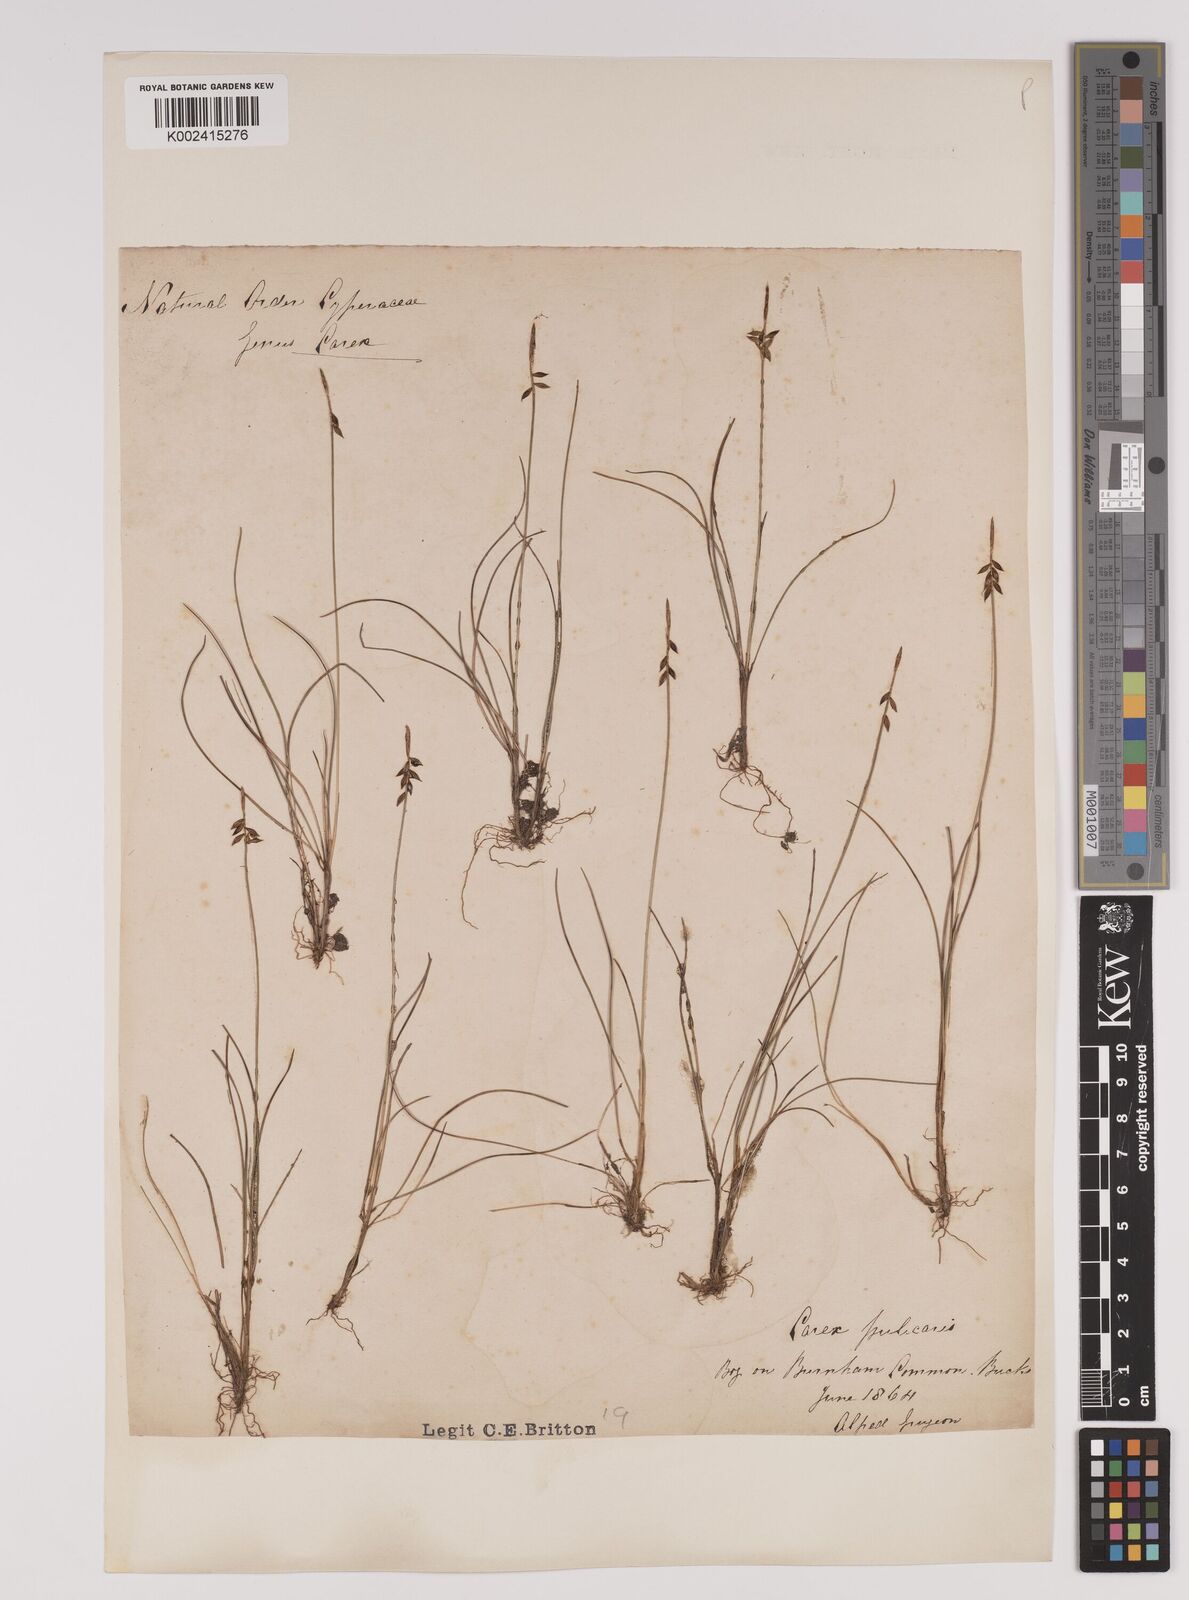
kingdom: Plantae
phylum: Tracheophyta
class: Liliopsida
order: Poales
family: Cyperaceae
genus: Carex
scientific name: Carex pulicaris
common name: Flea sedge
